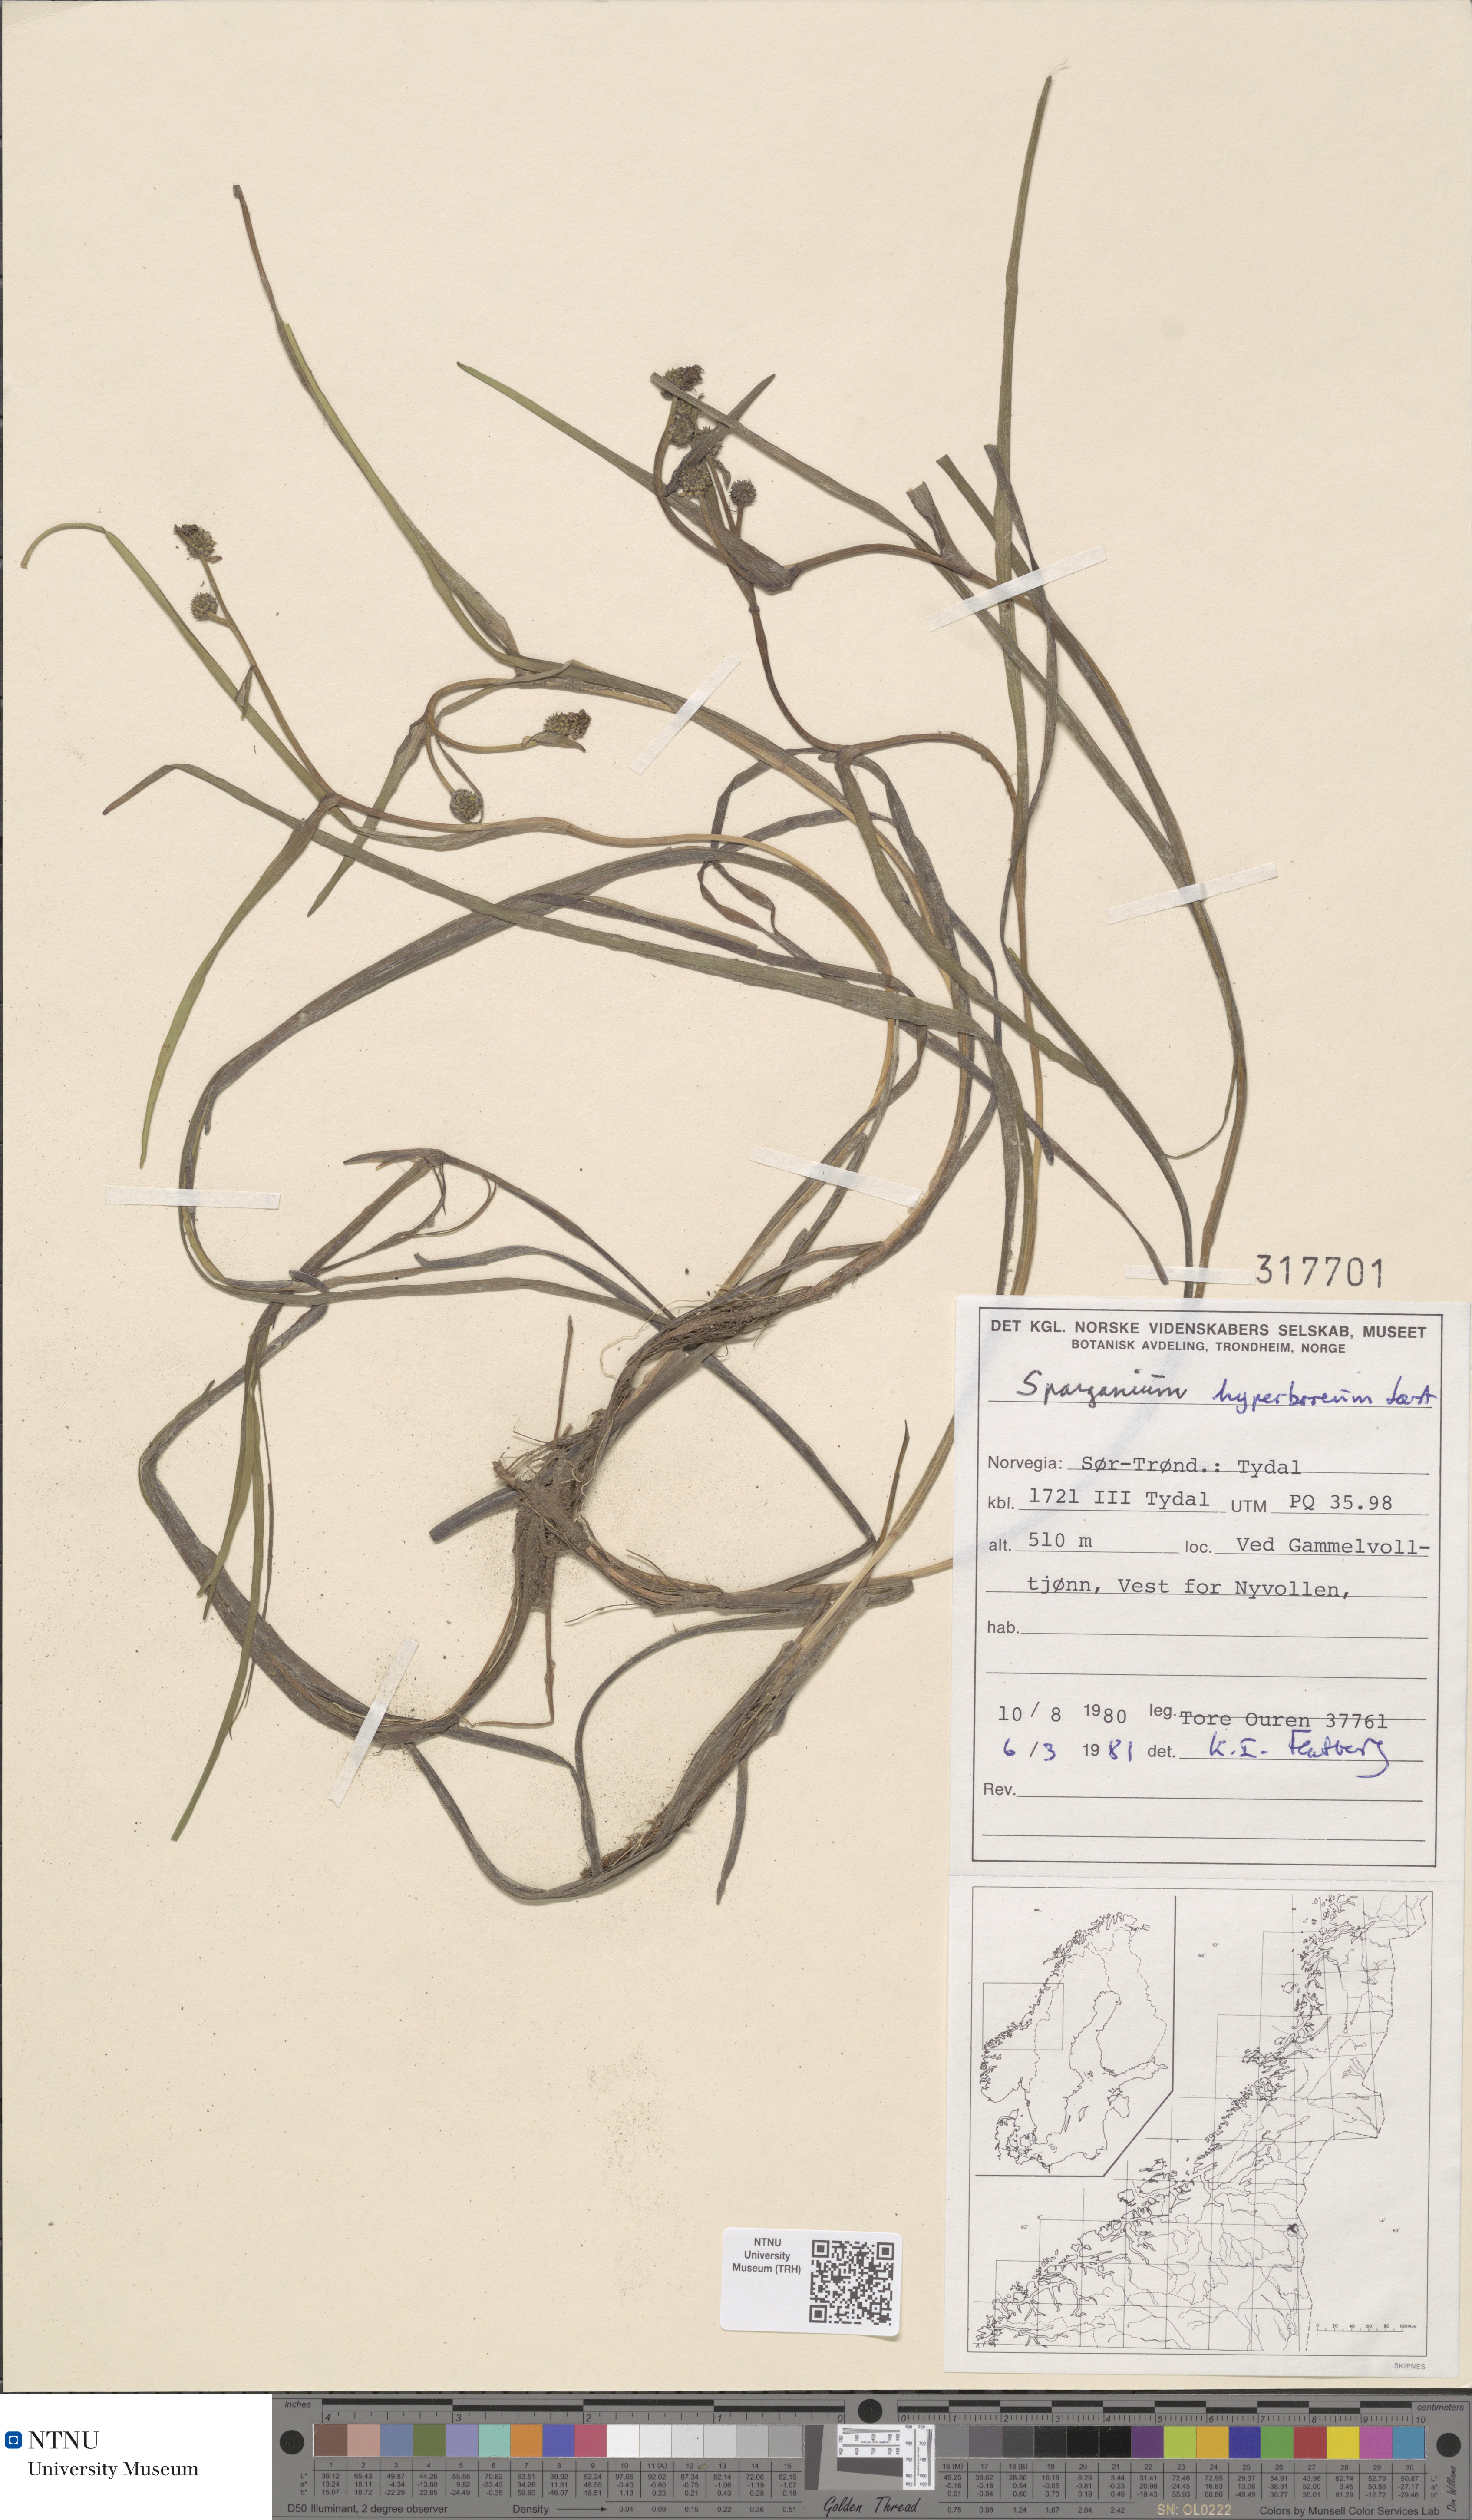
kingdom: Plantae
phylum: Tracheophyta
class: Liliopsida
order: Poales
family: Typhaceae
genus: Sparganium
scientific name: Sparganium hyperboreum
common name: Arctic burreed
